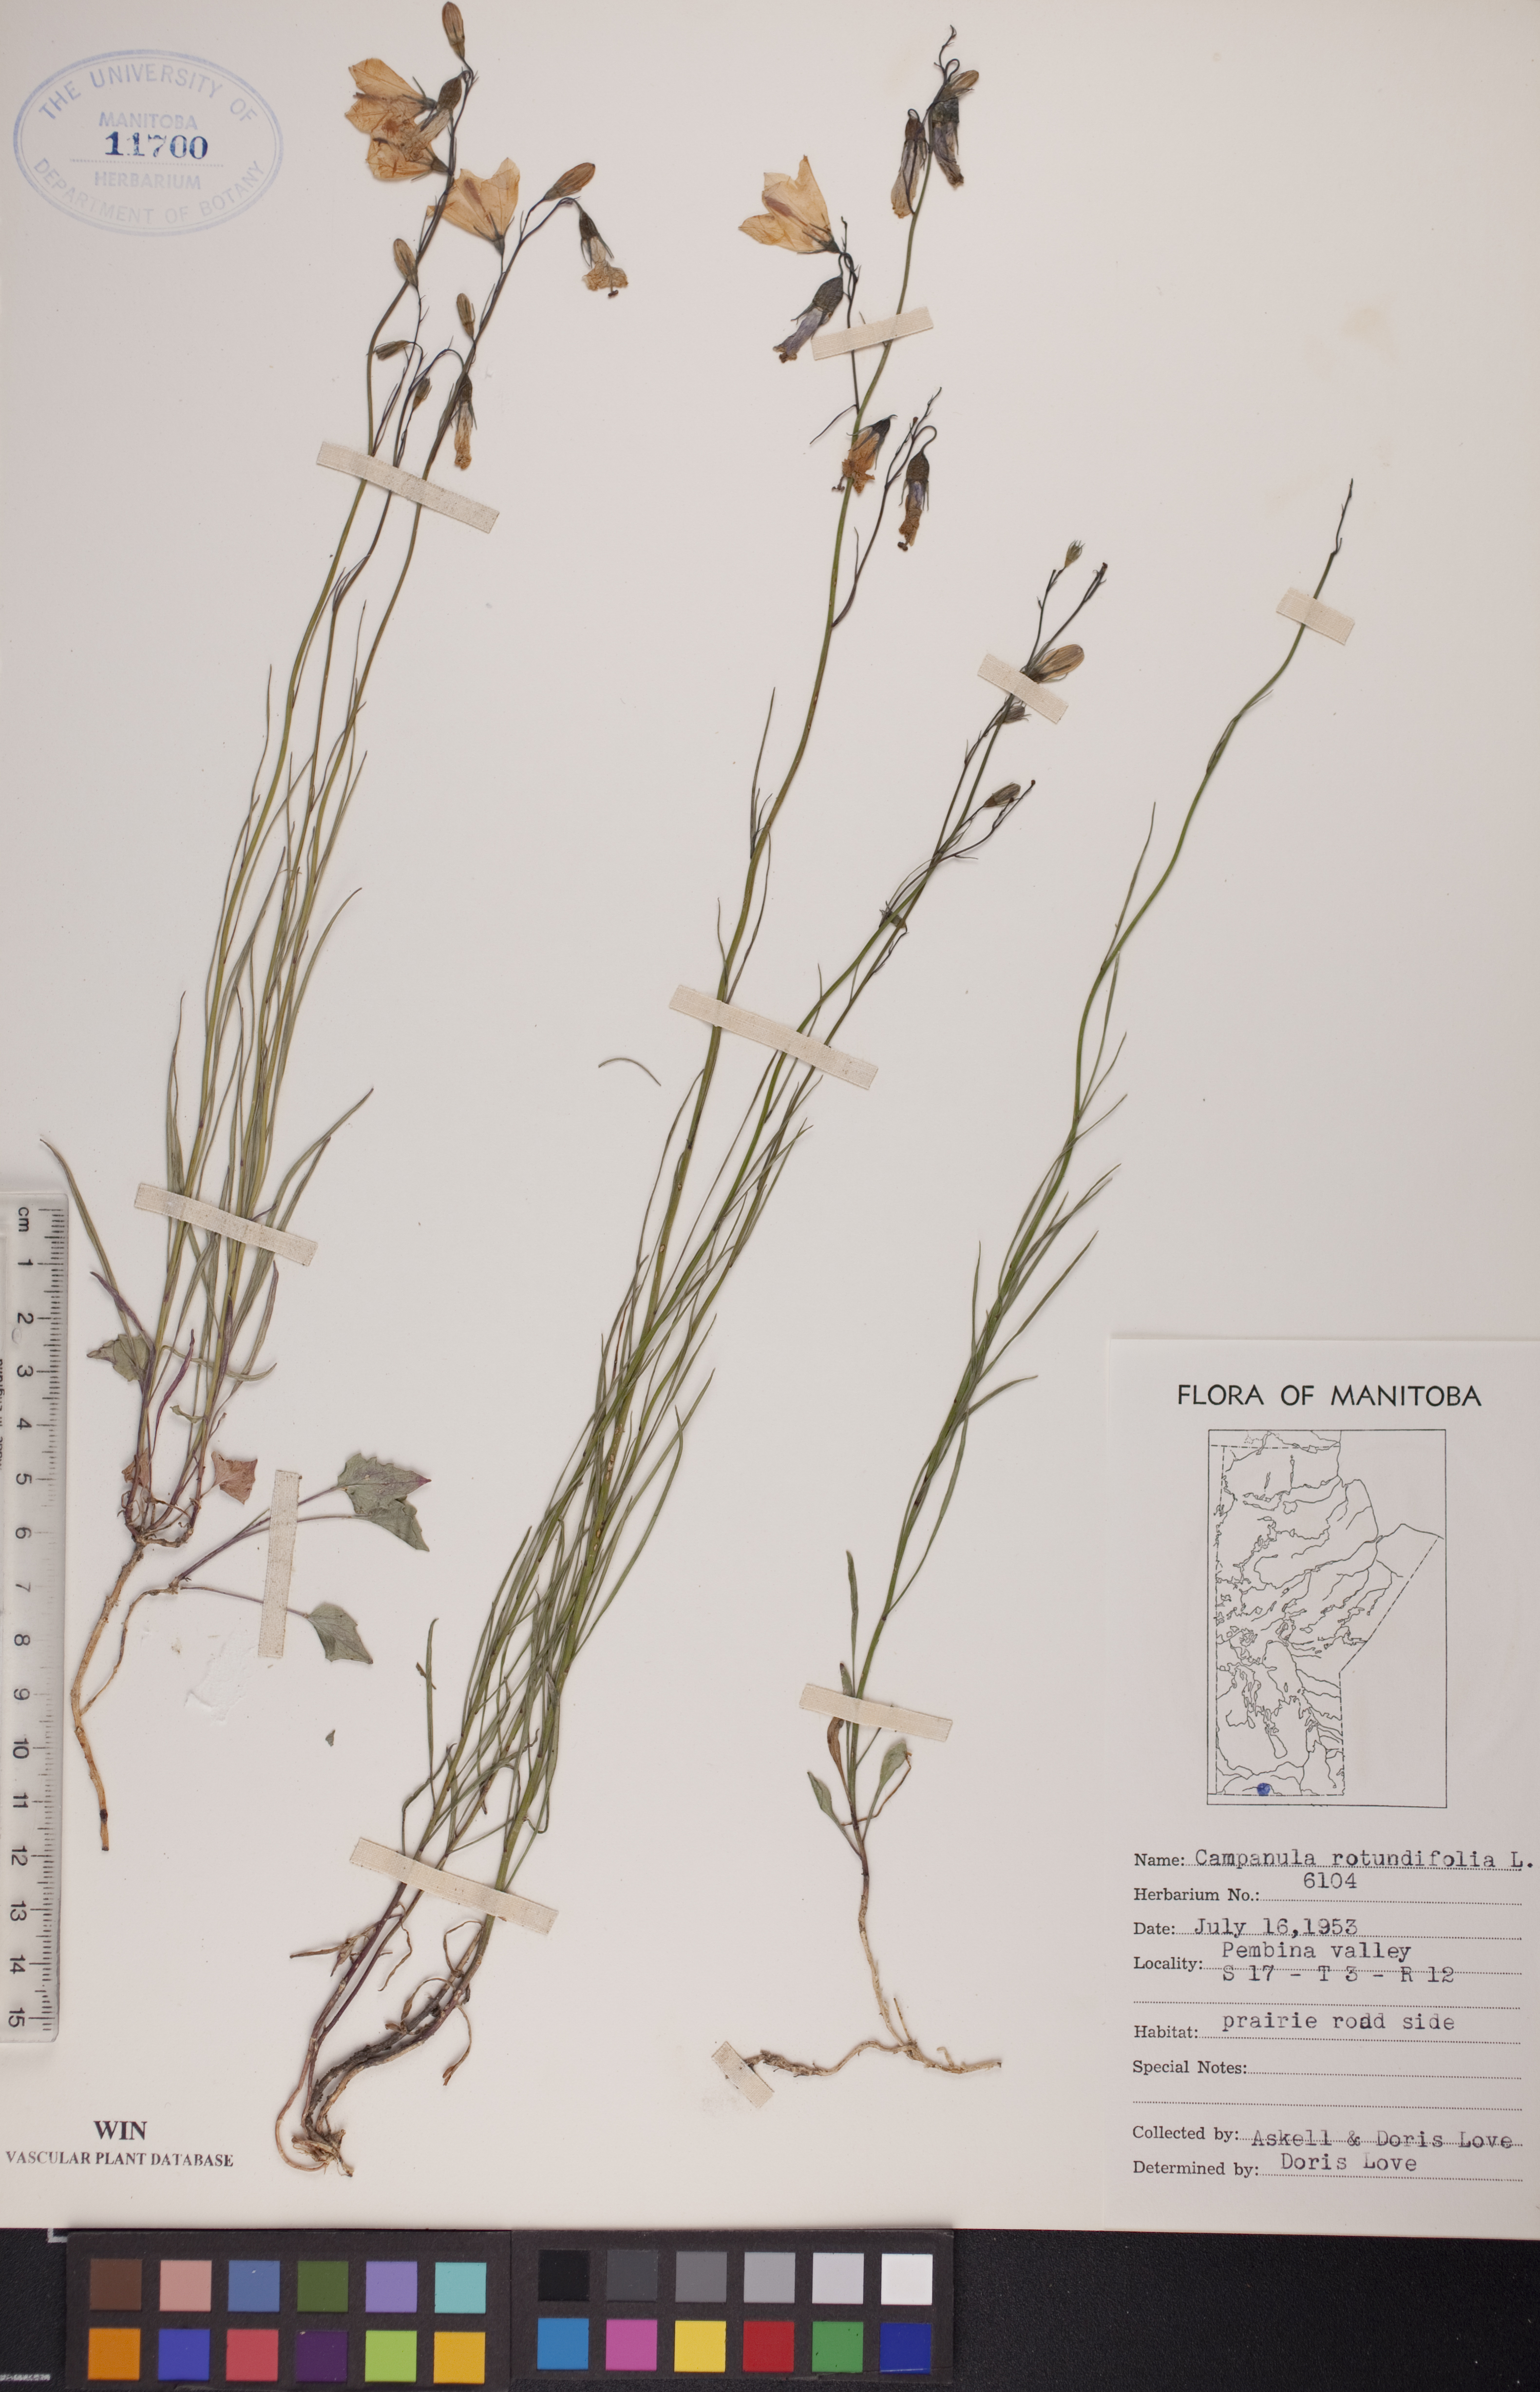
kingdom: Plantae
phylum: Tracheophyta
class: Magnoliopsida
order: Asterales
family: Campanulaceae
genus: Campanula
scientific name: Campanula rotundifolia
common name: Harebell
